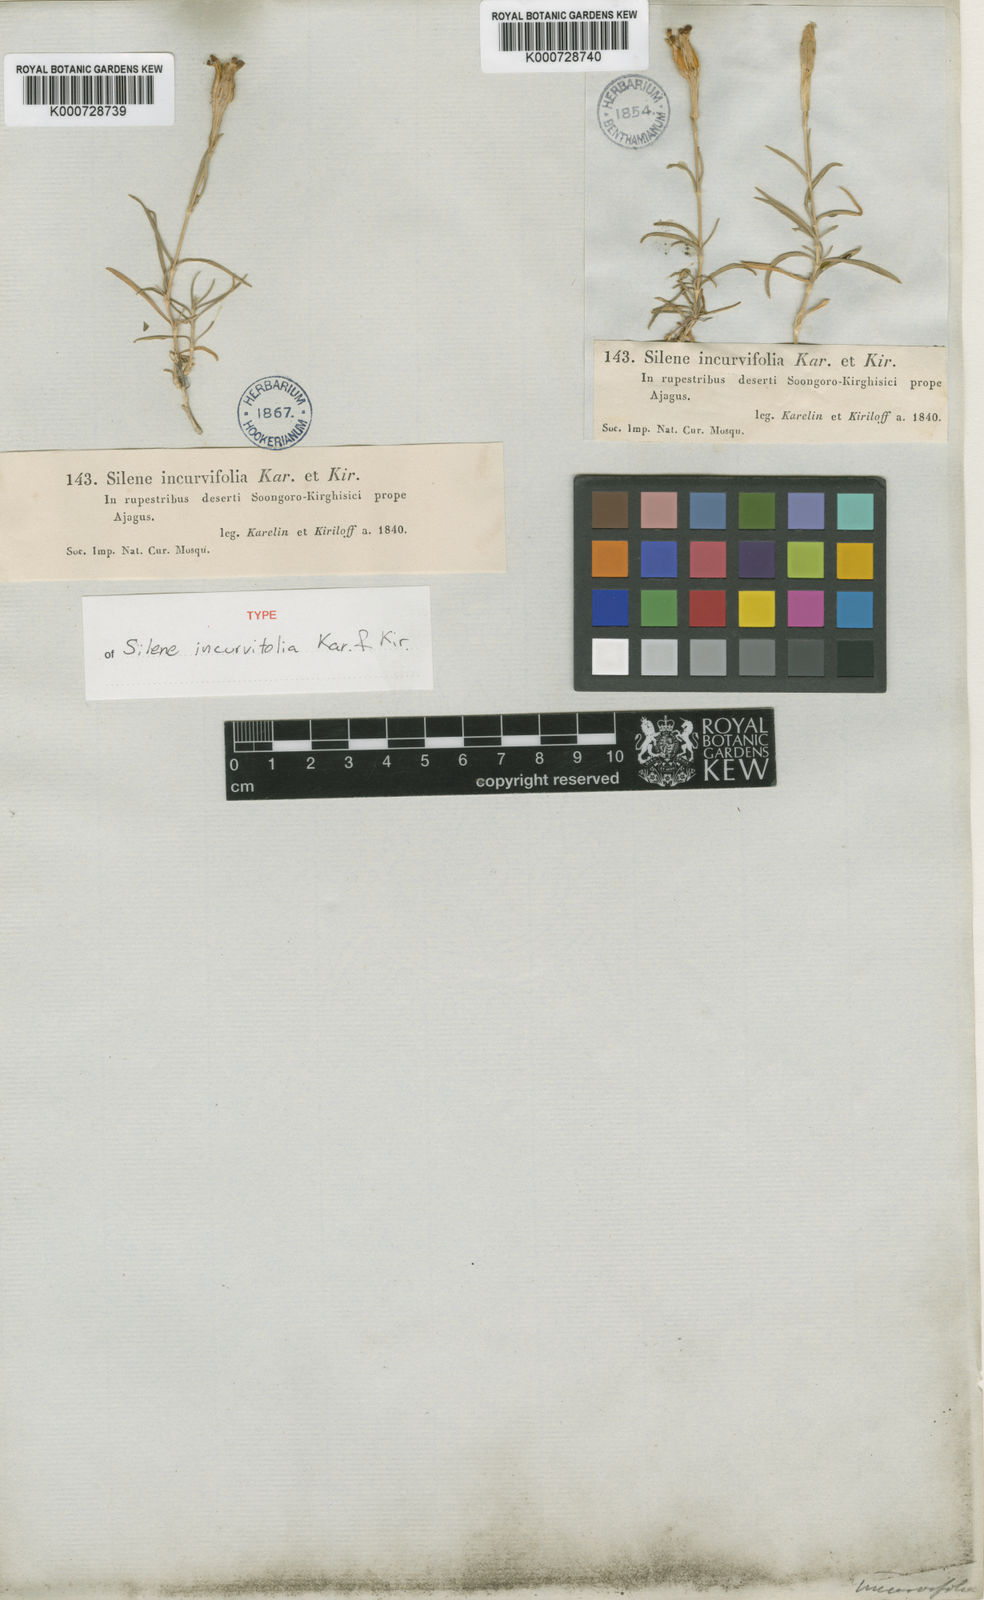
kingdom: Plantae
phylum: Tracheophyta
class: Magnoliopsida
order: Caryophyllales
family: Caryophyllaceae
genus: Silene
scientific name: Silene incurvifolia
